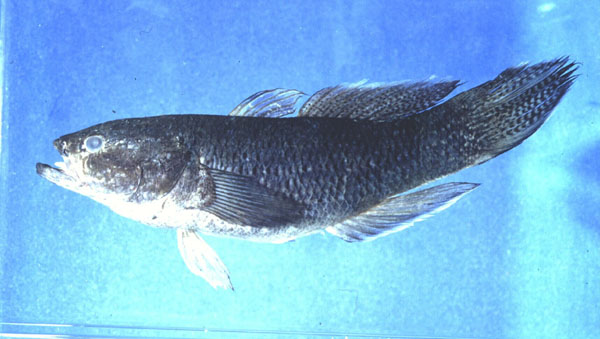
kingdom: Animalia
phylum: Chordata
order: Perciformes
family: Eleotridae
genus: Ophiocara
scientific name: Ophiocara porocephala
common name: Spangled gudgeon
